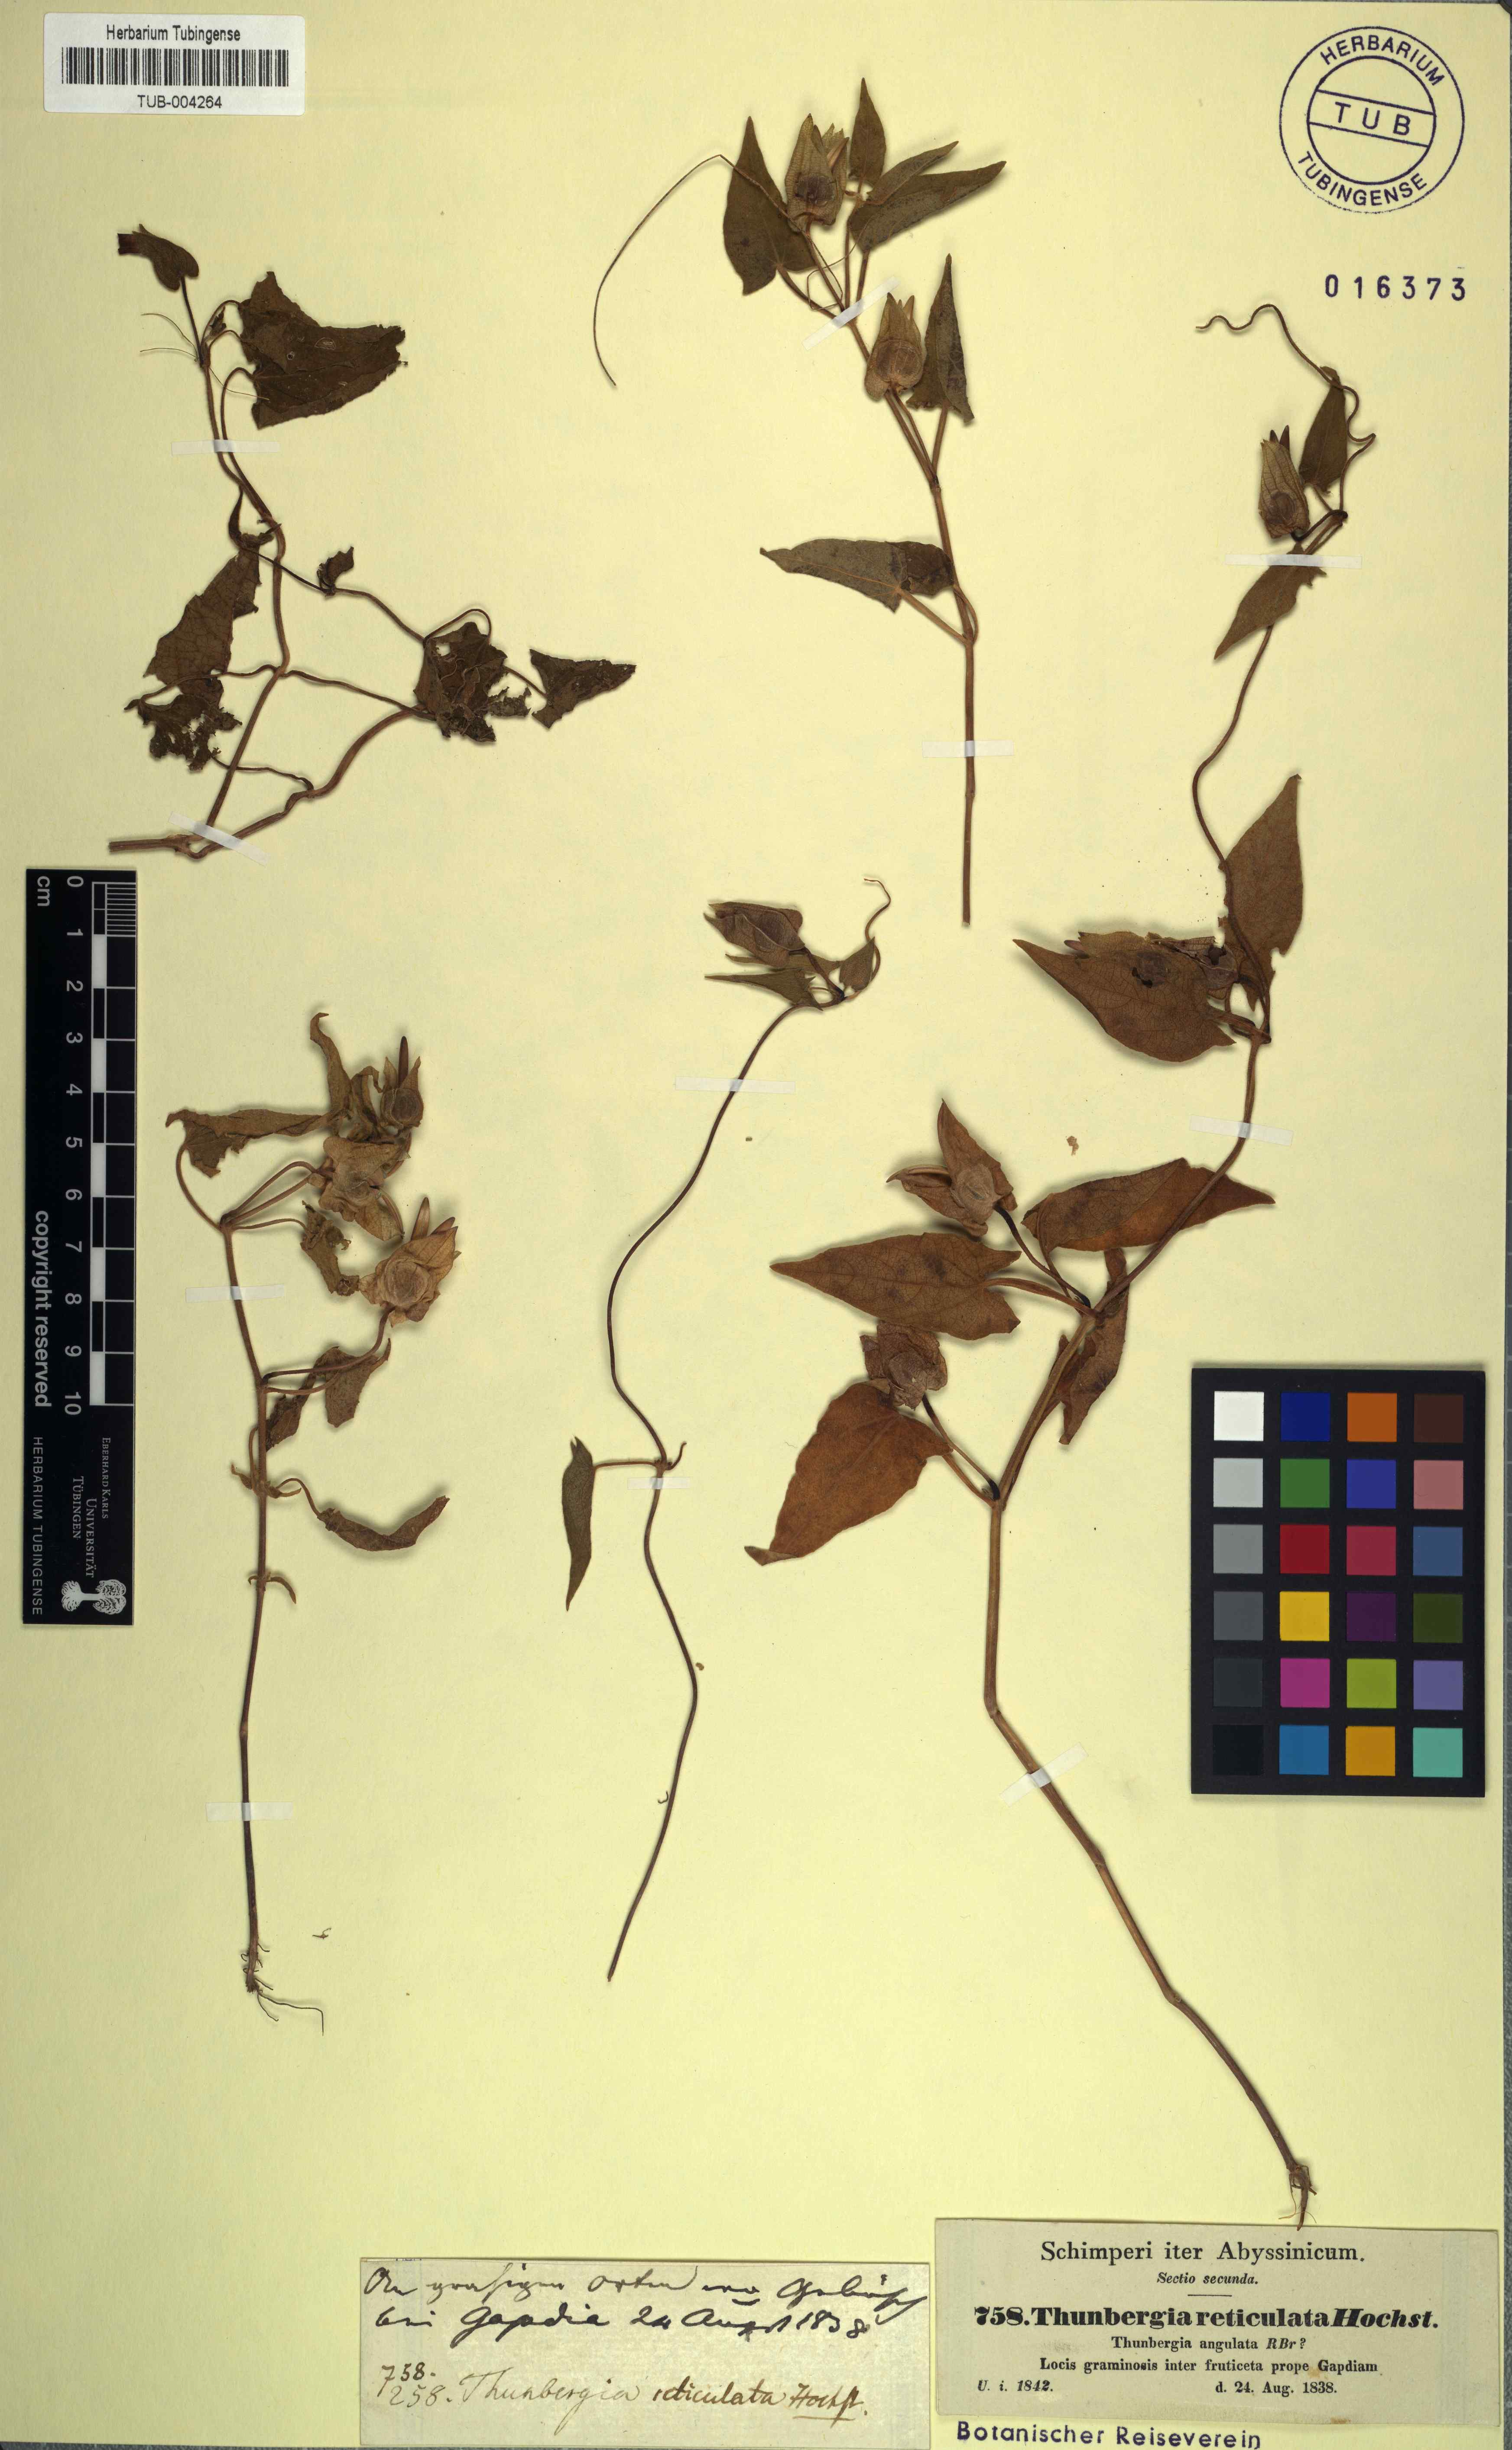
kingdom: Plantae
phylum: Tracheophyta
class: Magnoliopsida
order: Lamiales
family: Acanthaceae
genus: Thunbergia
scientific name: Thunbergia reticulata
